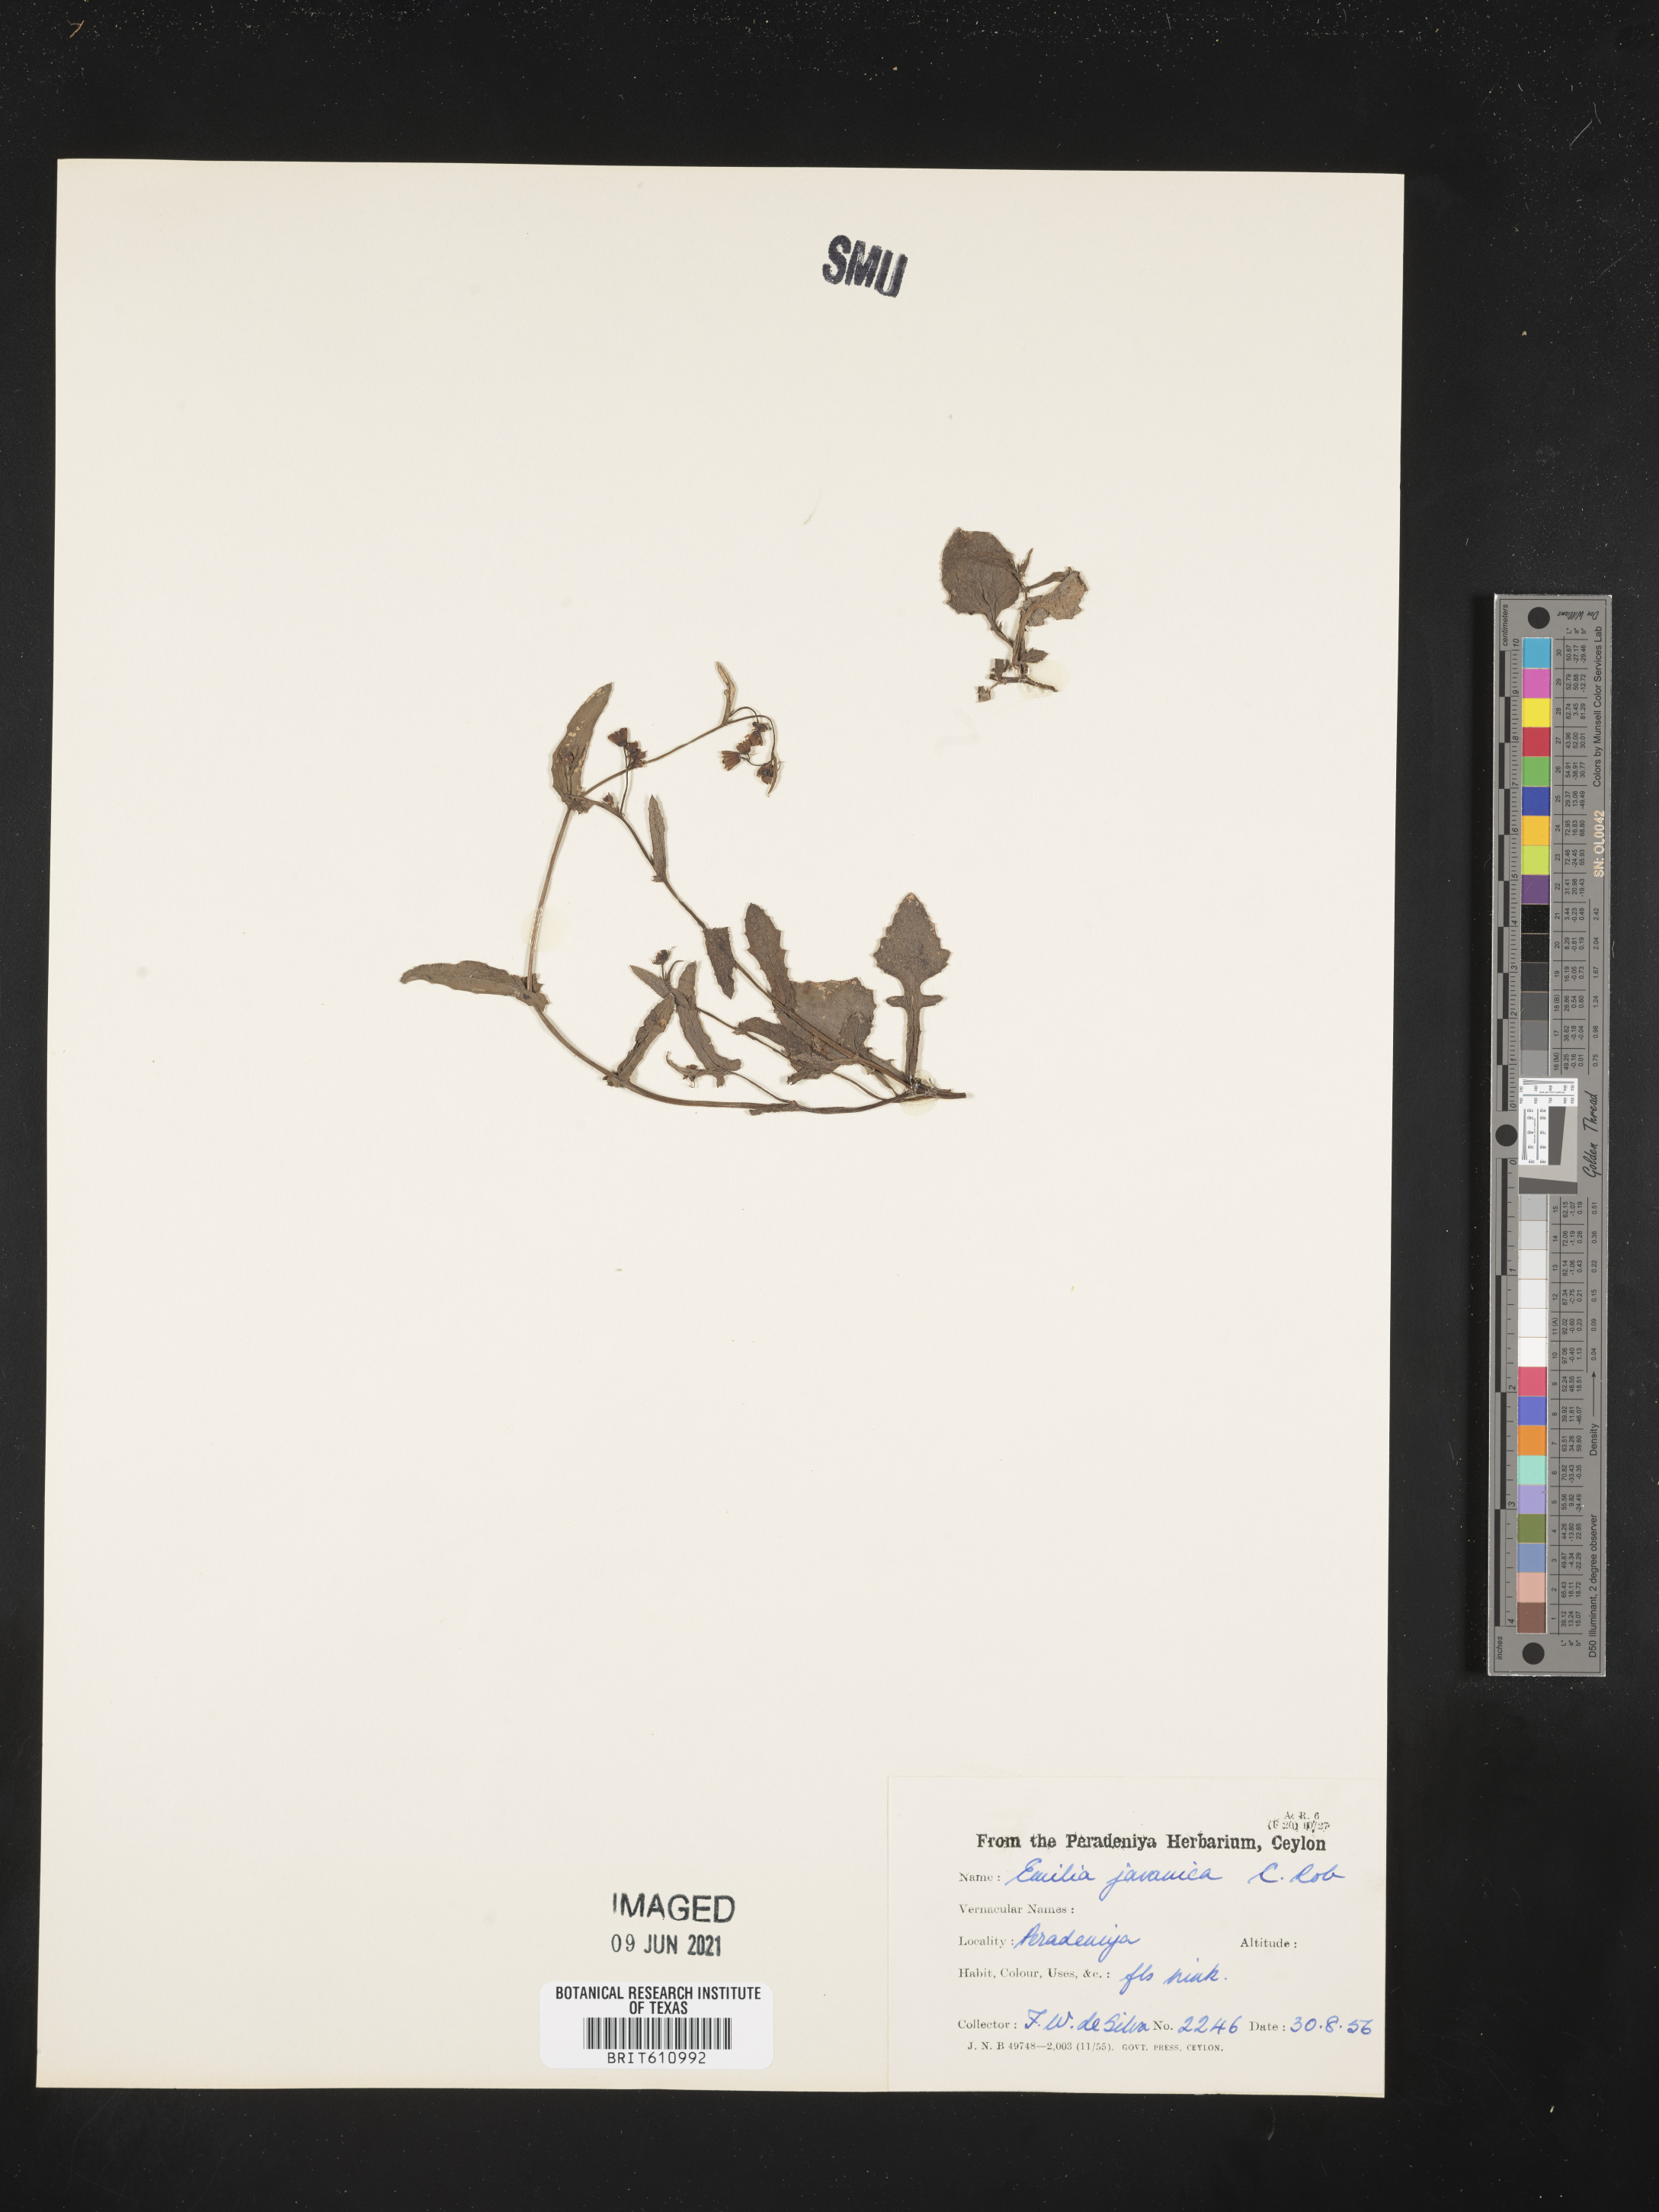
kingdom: Plantae
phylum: Tracheophyta
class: Magnoliopsida
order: Asterales
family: Asteraceae
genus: Emilia
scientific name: Emilia javanica
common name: Tassel-flower
